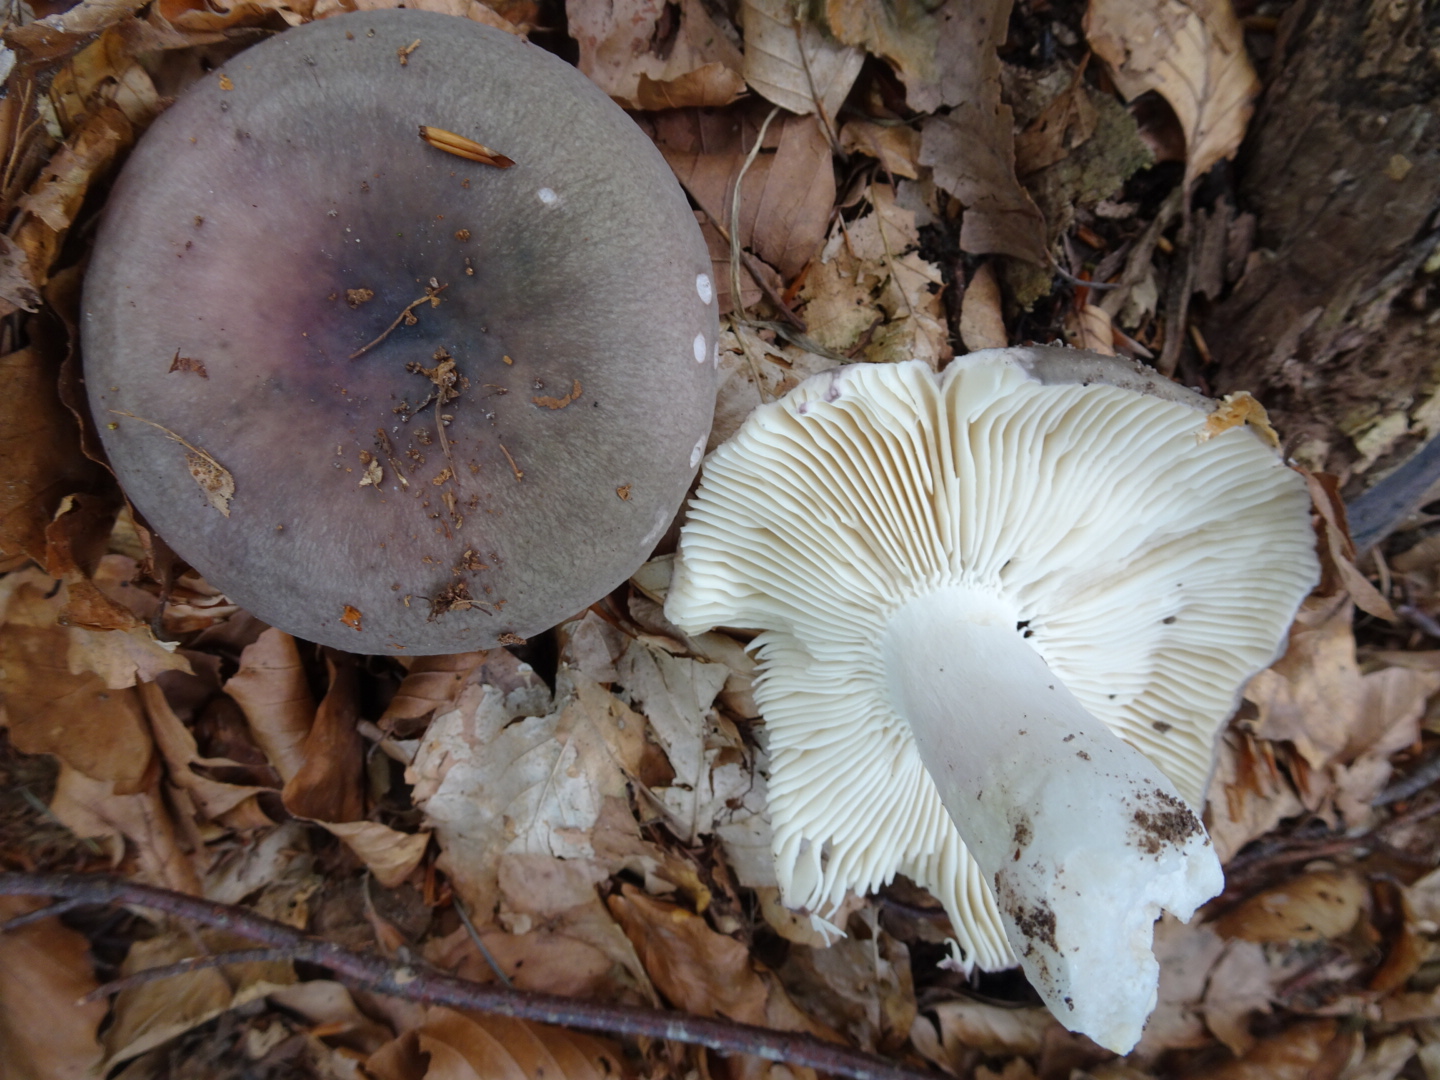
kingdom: Fungi
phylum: Basidiomycota
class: Agaricomycetes
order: Russulales
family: Russulaceae
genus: Russula
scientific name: Russula cyanoxantha
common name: broget skørhat
